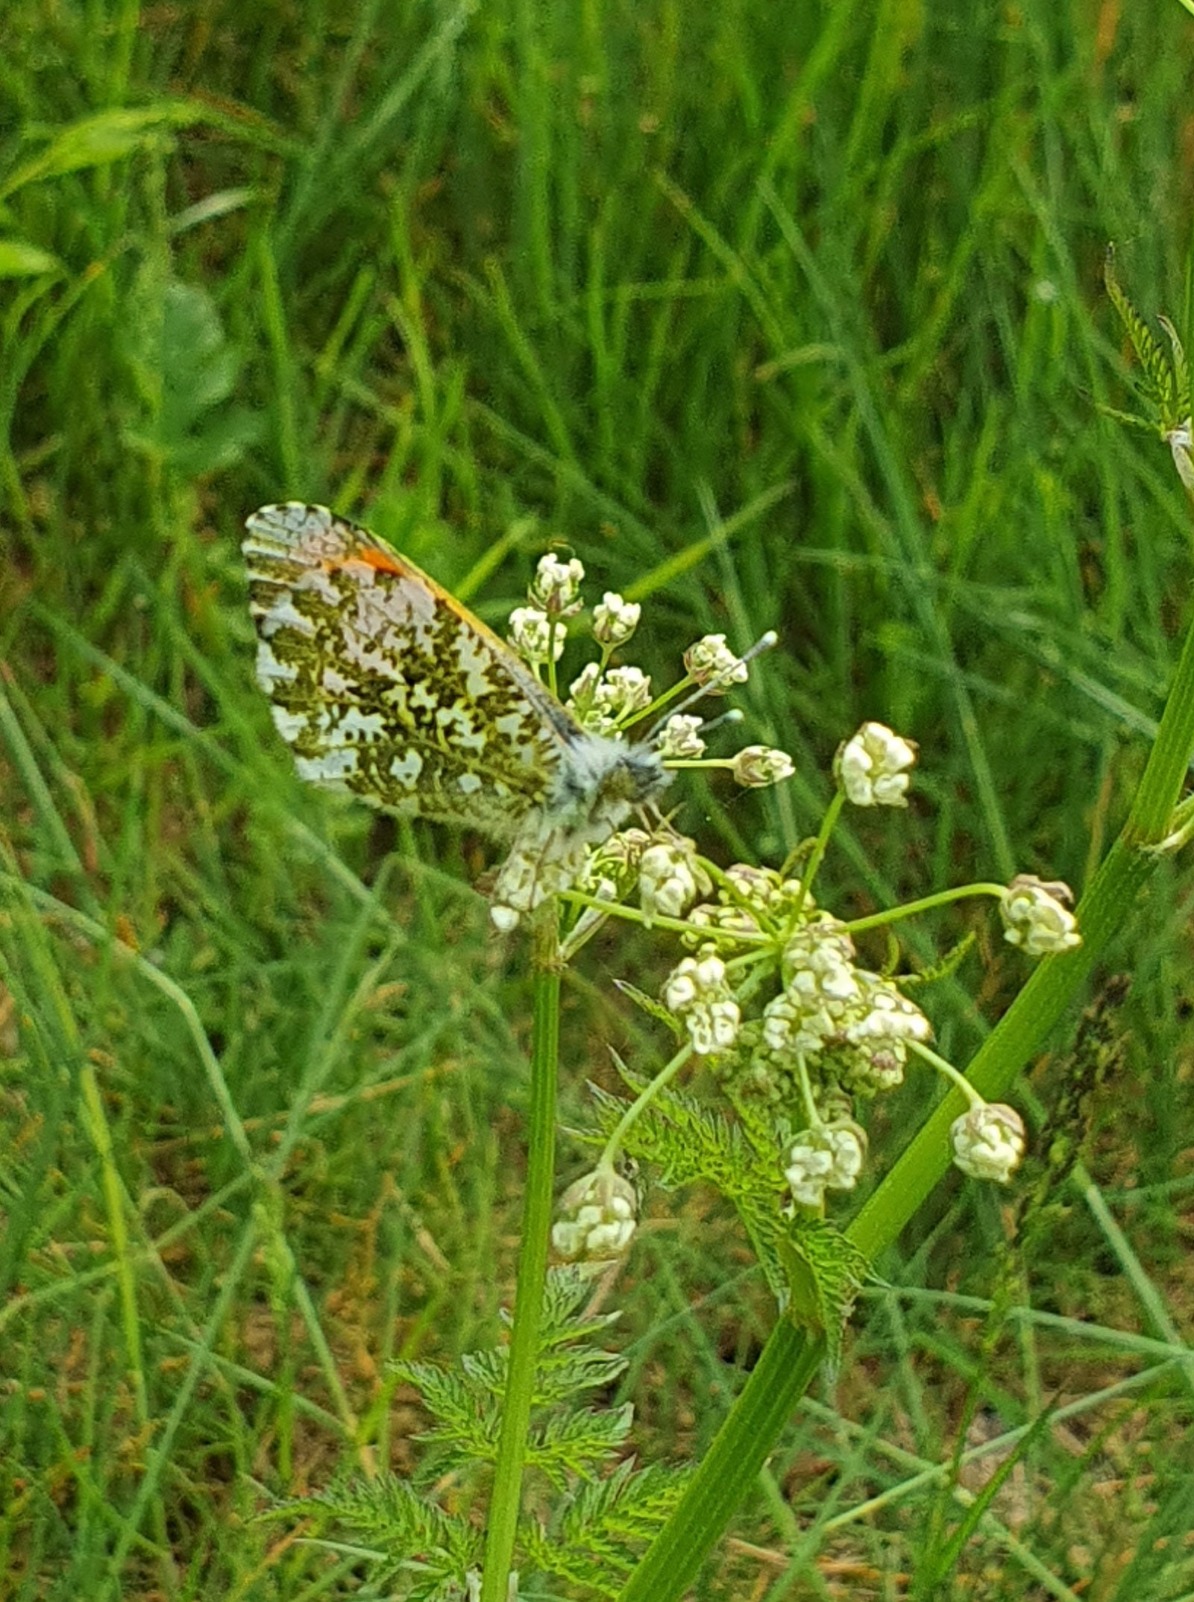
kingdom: Animalia
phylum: Arthropoda
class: Insecta
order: Lepidoptera
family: Pieridae
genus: Anthocharis
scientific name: Anthocharis cardamines
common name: Aurora
